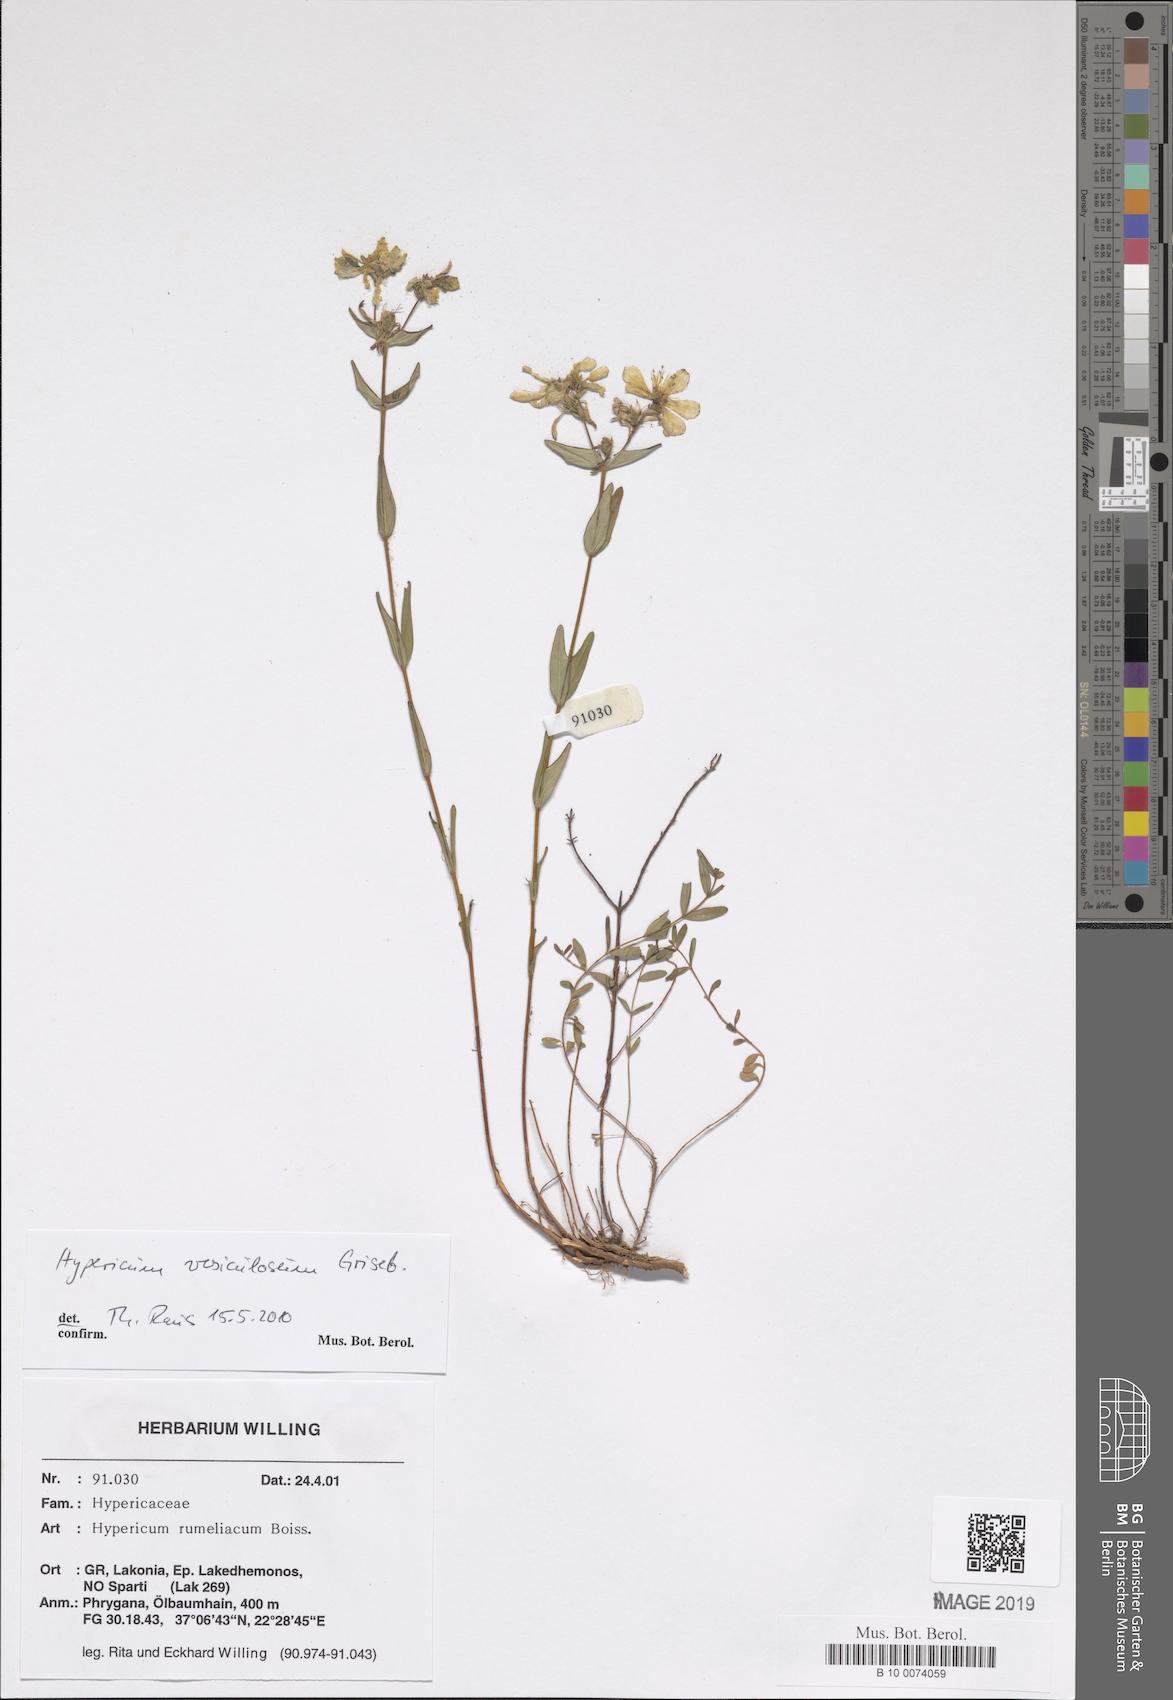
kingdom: Plantae
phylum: Tracheophyta
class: Magnoliopsida
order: Malpighiales
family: Hypericaceae
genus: Hypericum
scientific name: Hypericum perfoliatum
